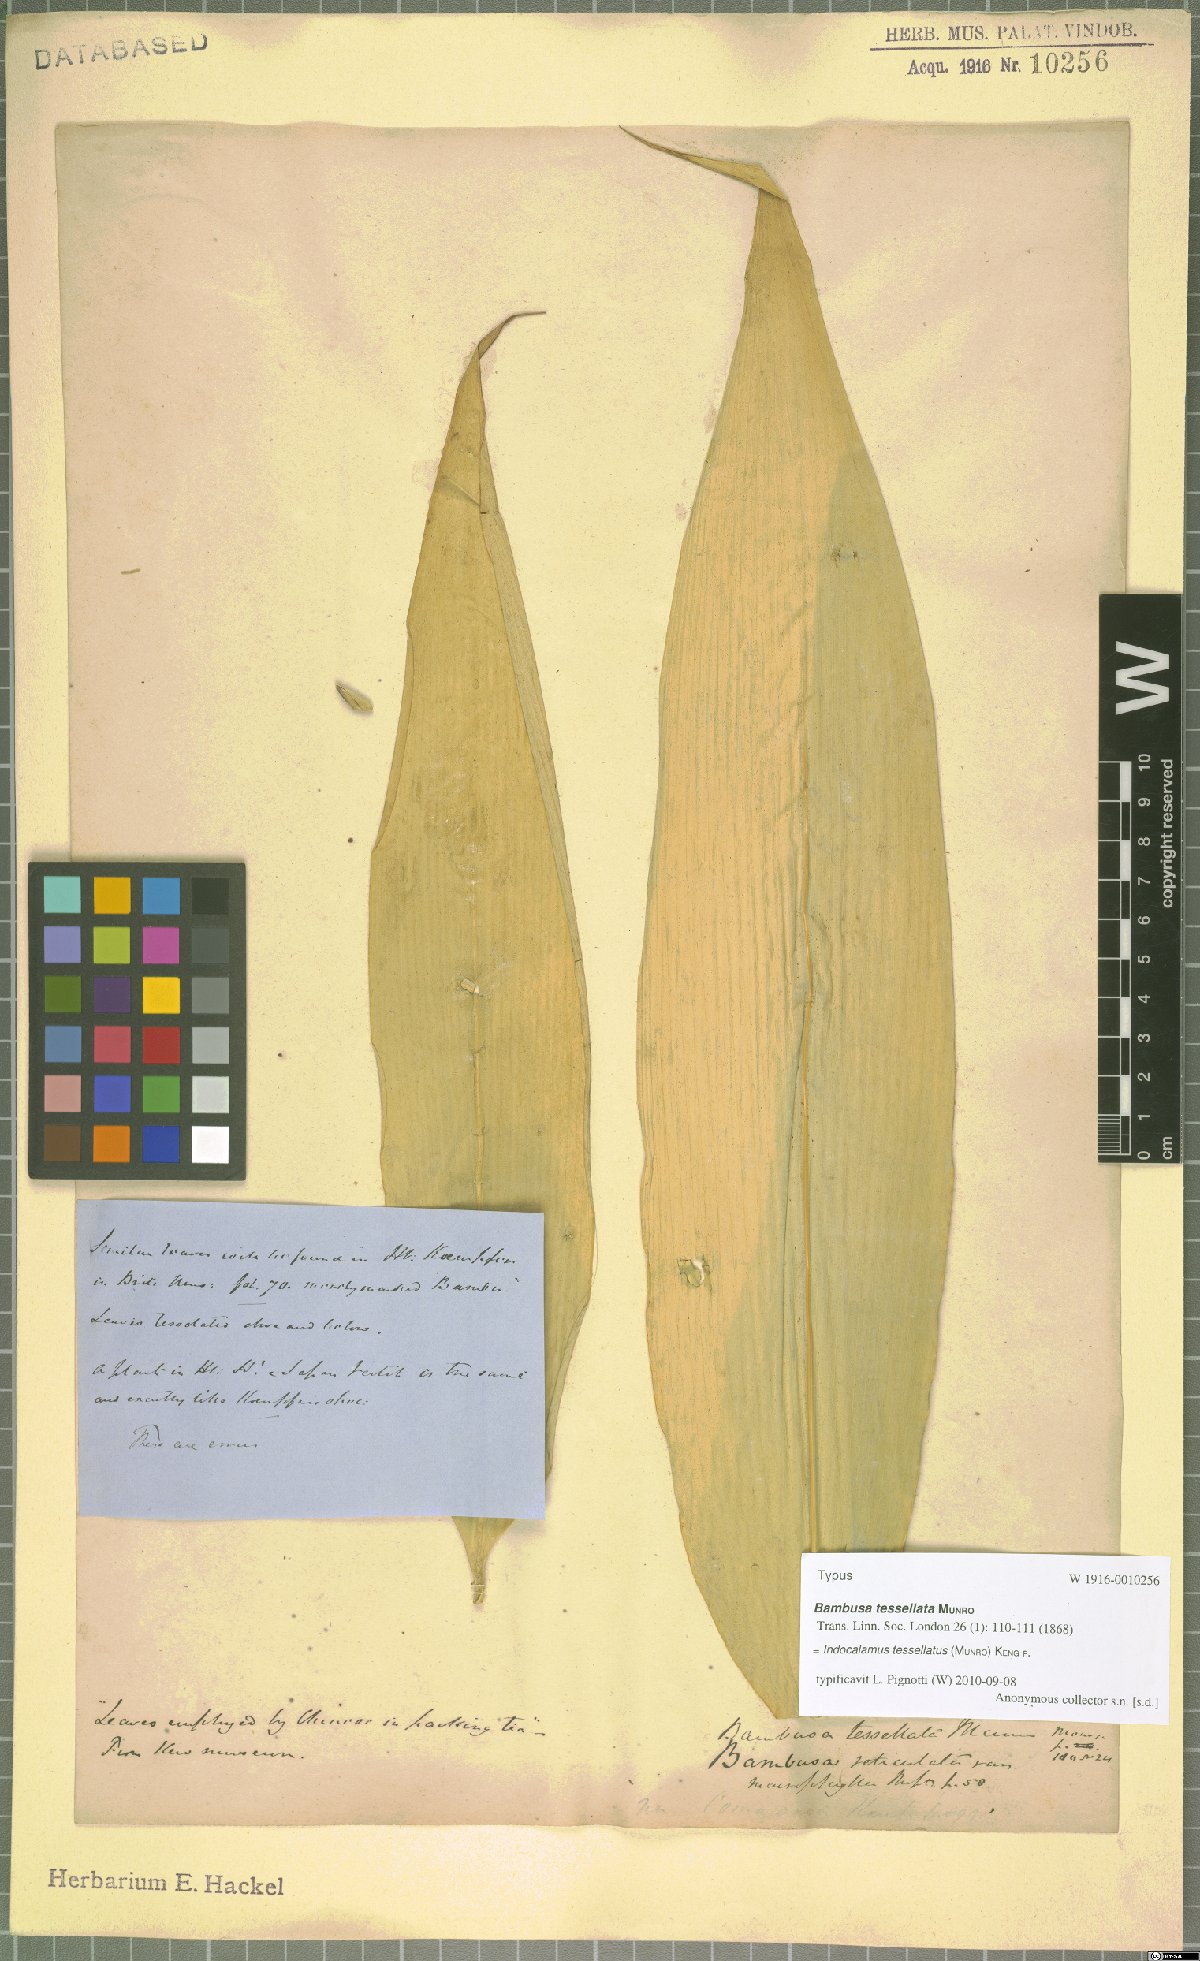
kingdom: Plantae
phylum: Tracheophyta
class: Liliopsida
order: Poales
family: Poaceae
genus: Indocalamus
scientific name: Indocalamus tessellatus
